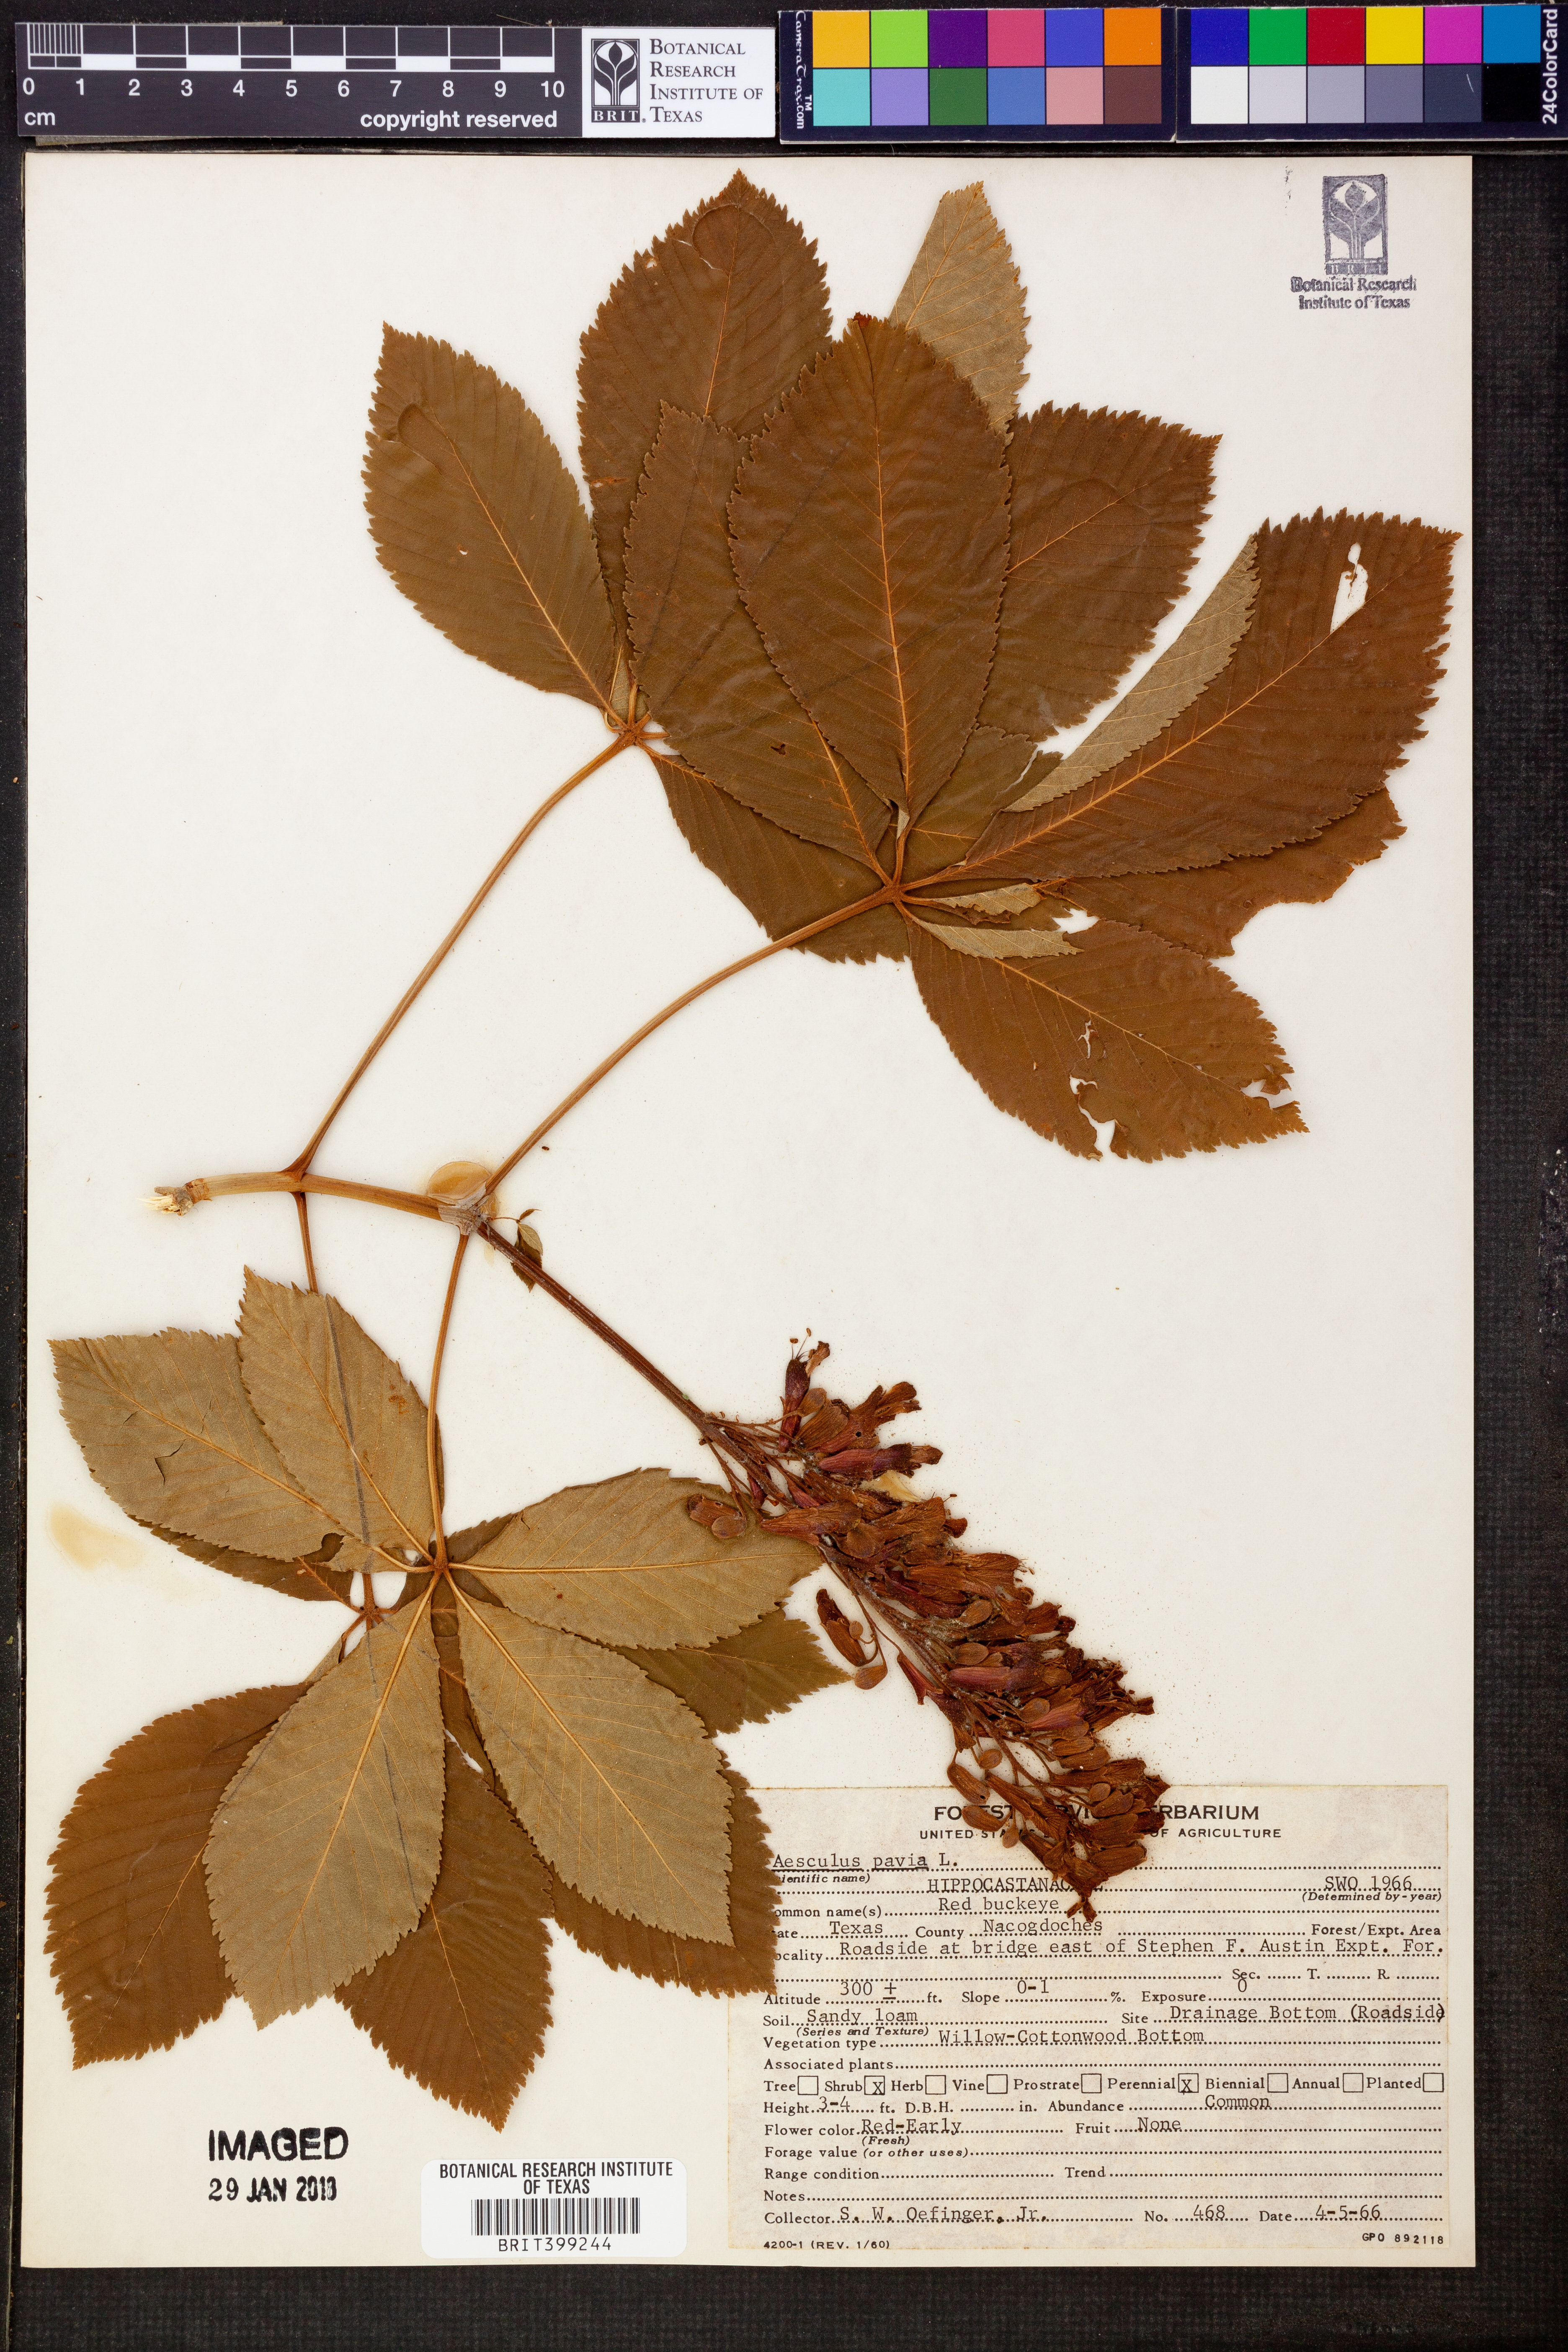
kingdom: Plantae
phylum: Tracheophyta
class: Magnoliopsida
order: Sapindales
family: Sapindaceae
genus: Aesculus
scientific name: Aesculus pavia
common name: Red buckeye
